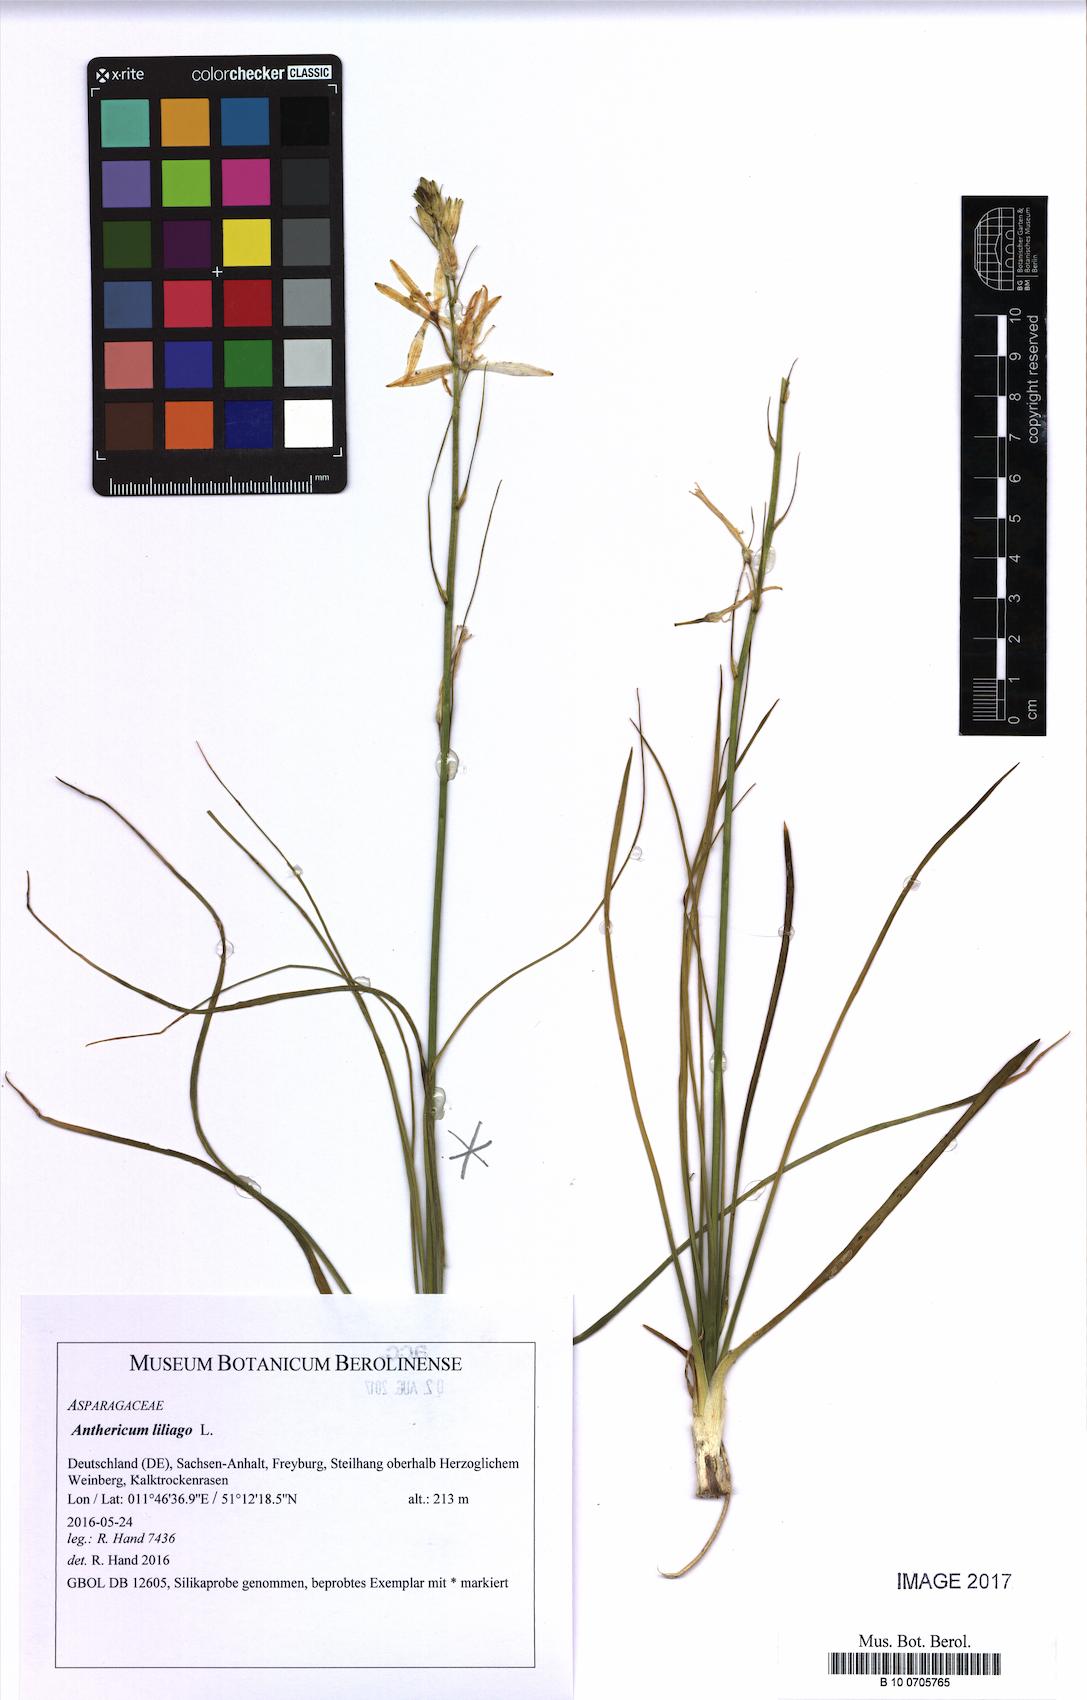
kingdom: Plantae
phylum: Tracheophyta
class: Liliopsida
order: Asparagales
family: Asparagaceae
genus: Anthericum
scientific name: Anthericum liliago
